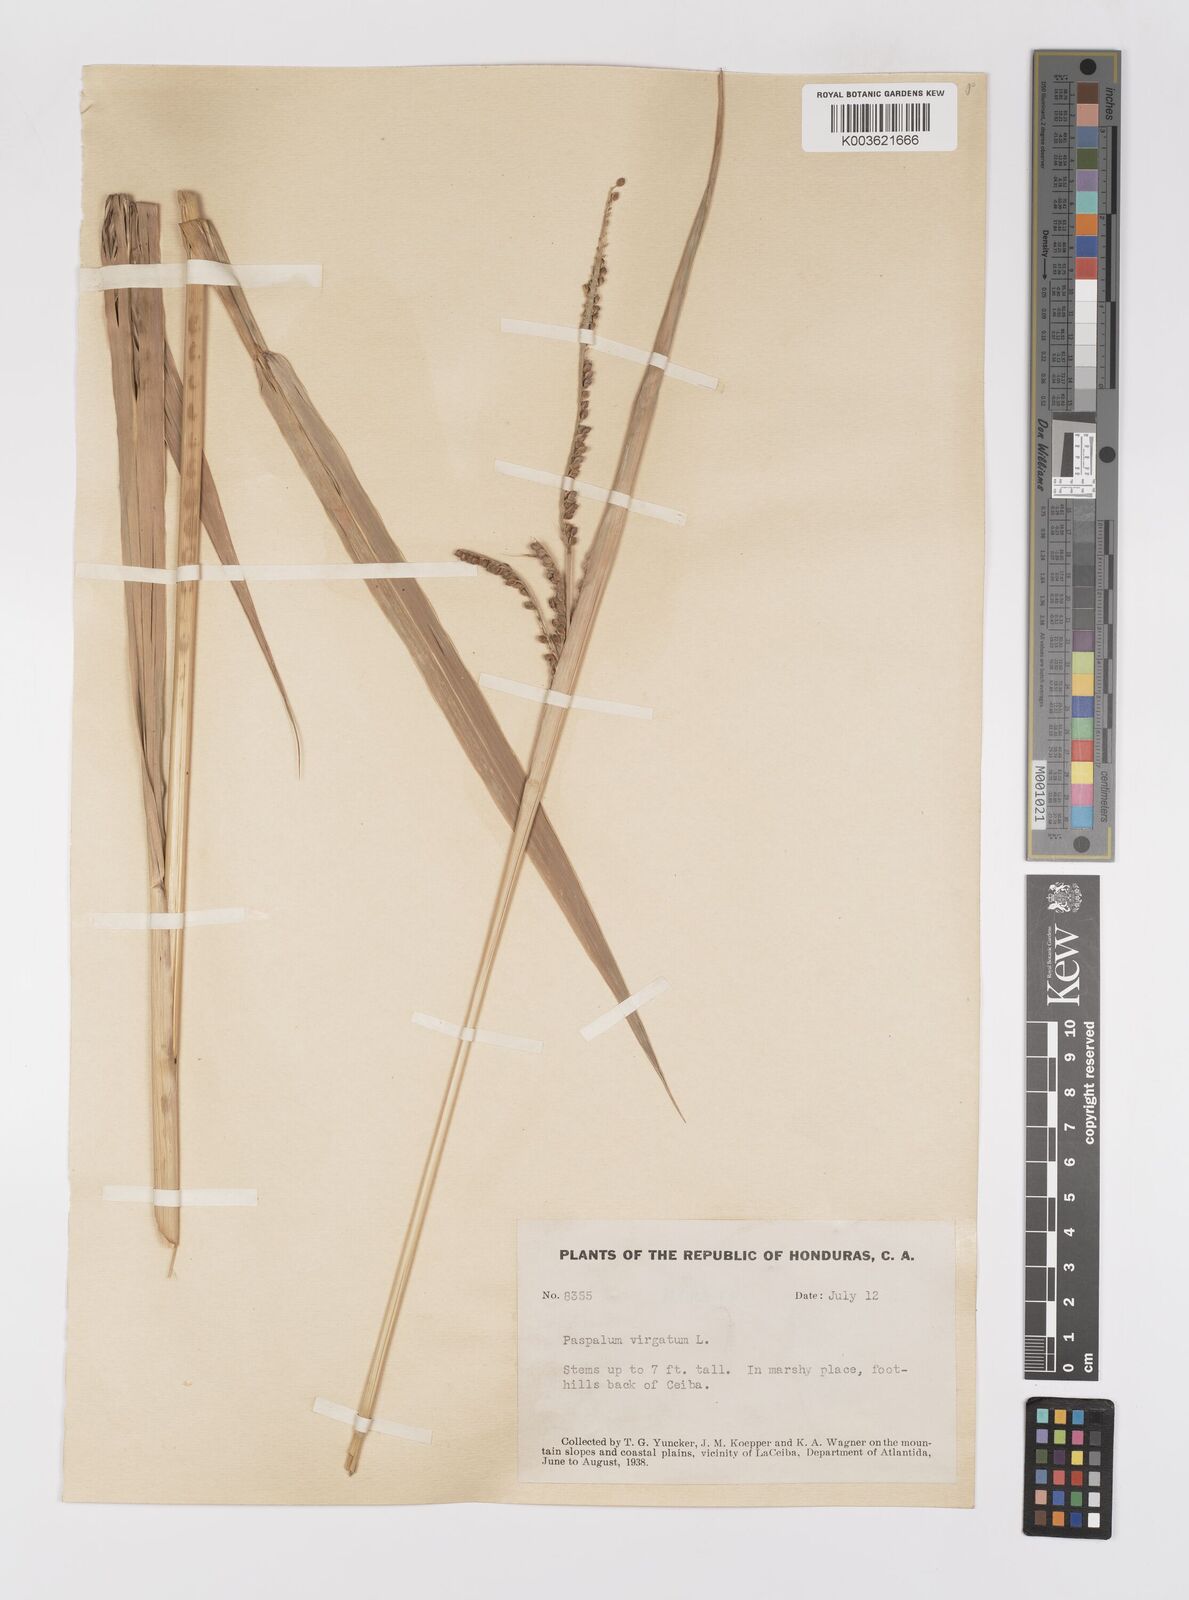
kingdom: Plantae
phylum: Tracheophyta
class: Liliopsida
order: Poales
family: Poaceae
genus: Paspalum
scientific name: Paspalum virgatum
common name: Talquezal
